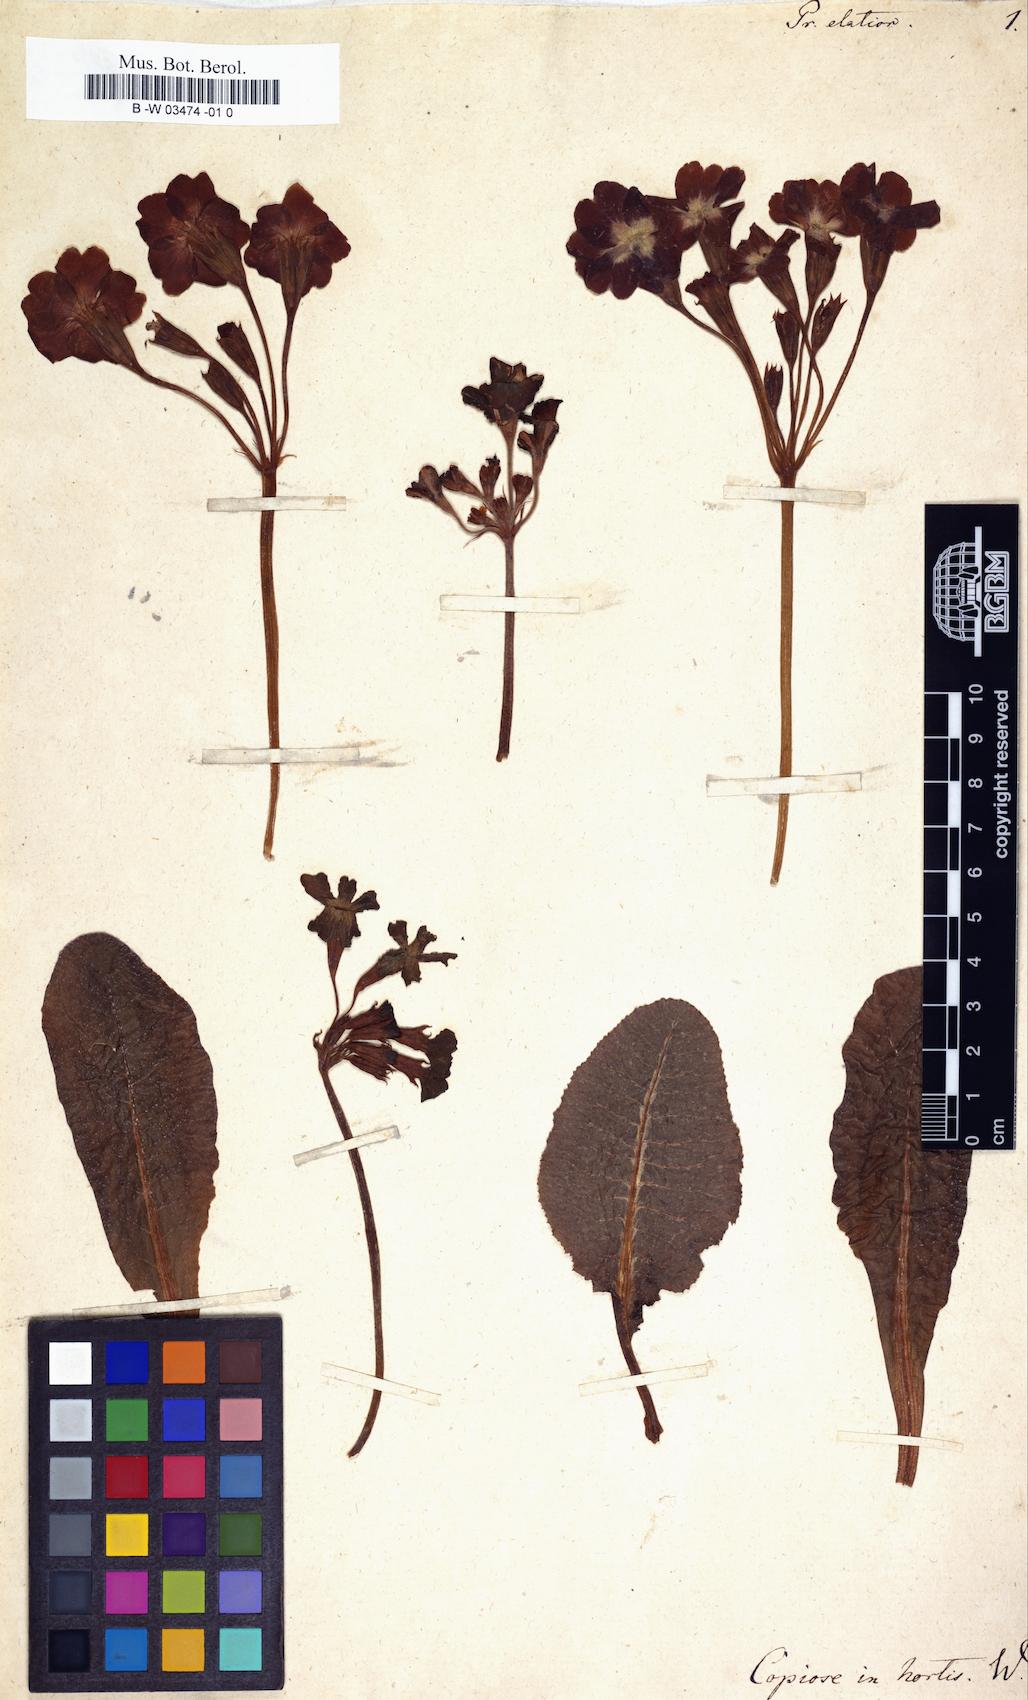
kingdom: Plantae
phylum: Tracheophyta
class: Magnoliopsida
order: Ericales
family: Primulaceae
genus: Primula
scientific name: Primula elatior
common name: Oxlip
